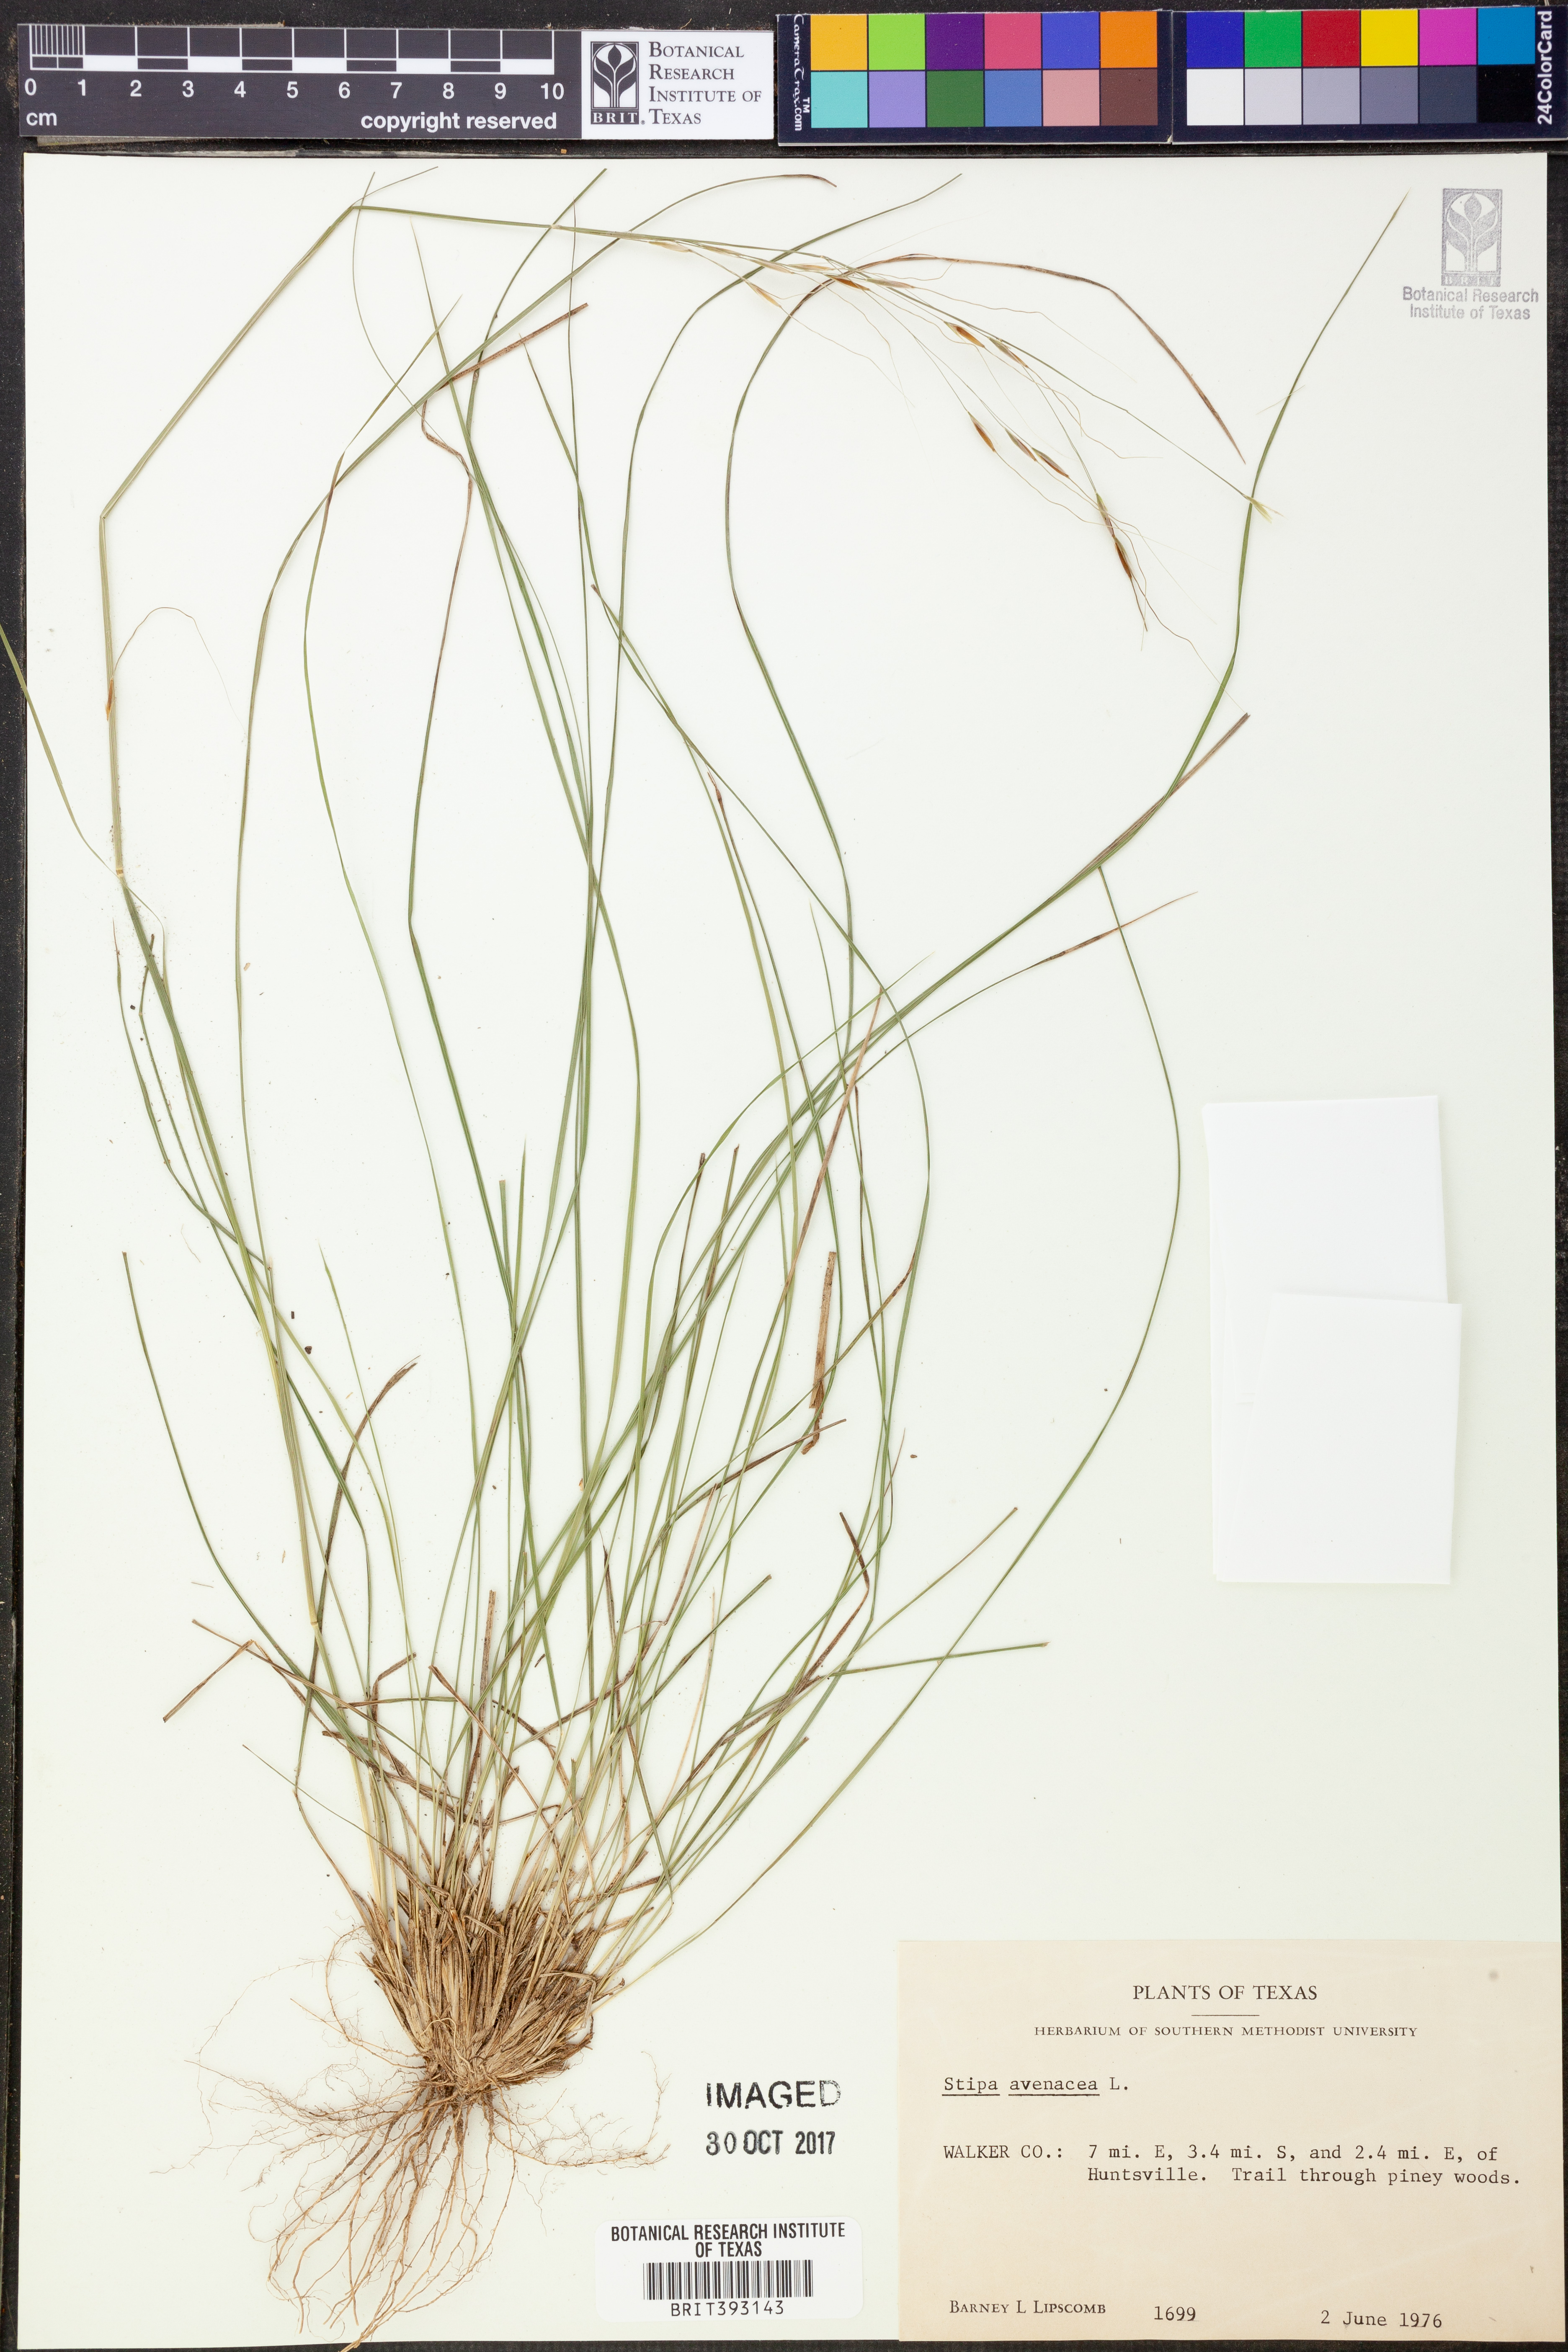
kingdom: Plantae
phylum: Tracheophyta
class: Liliopsida
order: Poales
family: Poaceae
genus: Piptochaetium
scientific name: Piptochaetium avenaceum
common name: Black bunchgrass
